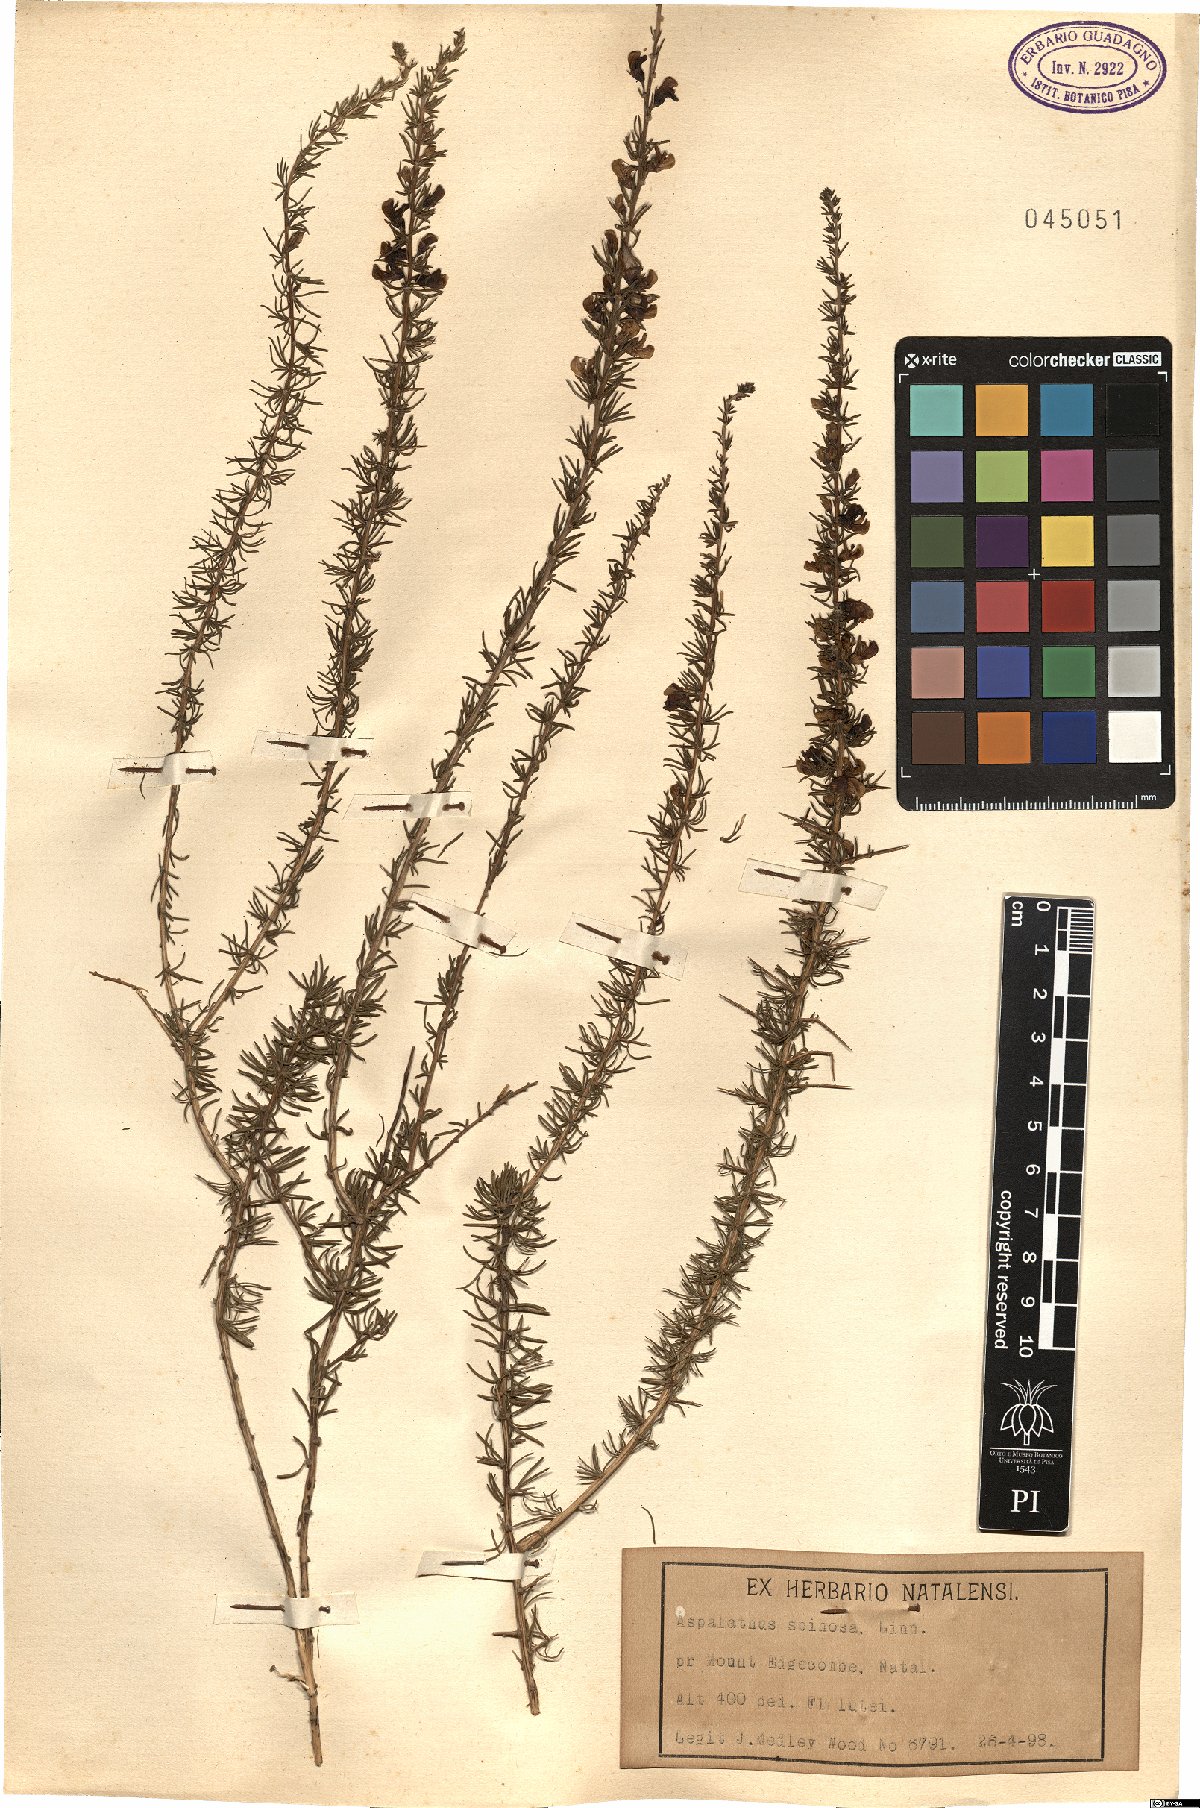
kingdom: Plantae
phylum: Tracheophyta
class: Magnoliopsida
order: Fabales
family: Fabaceae
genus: Aspalathus
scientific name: Aspalathus spinosa
